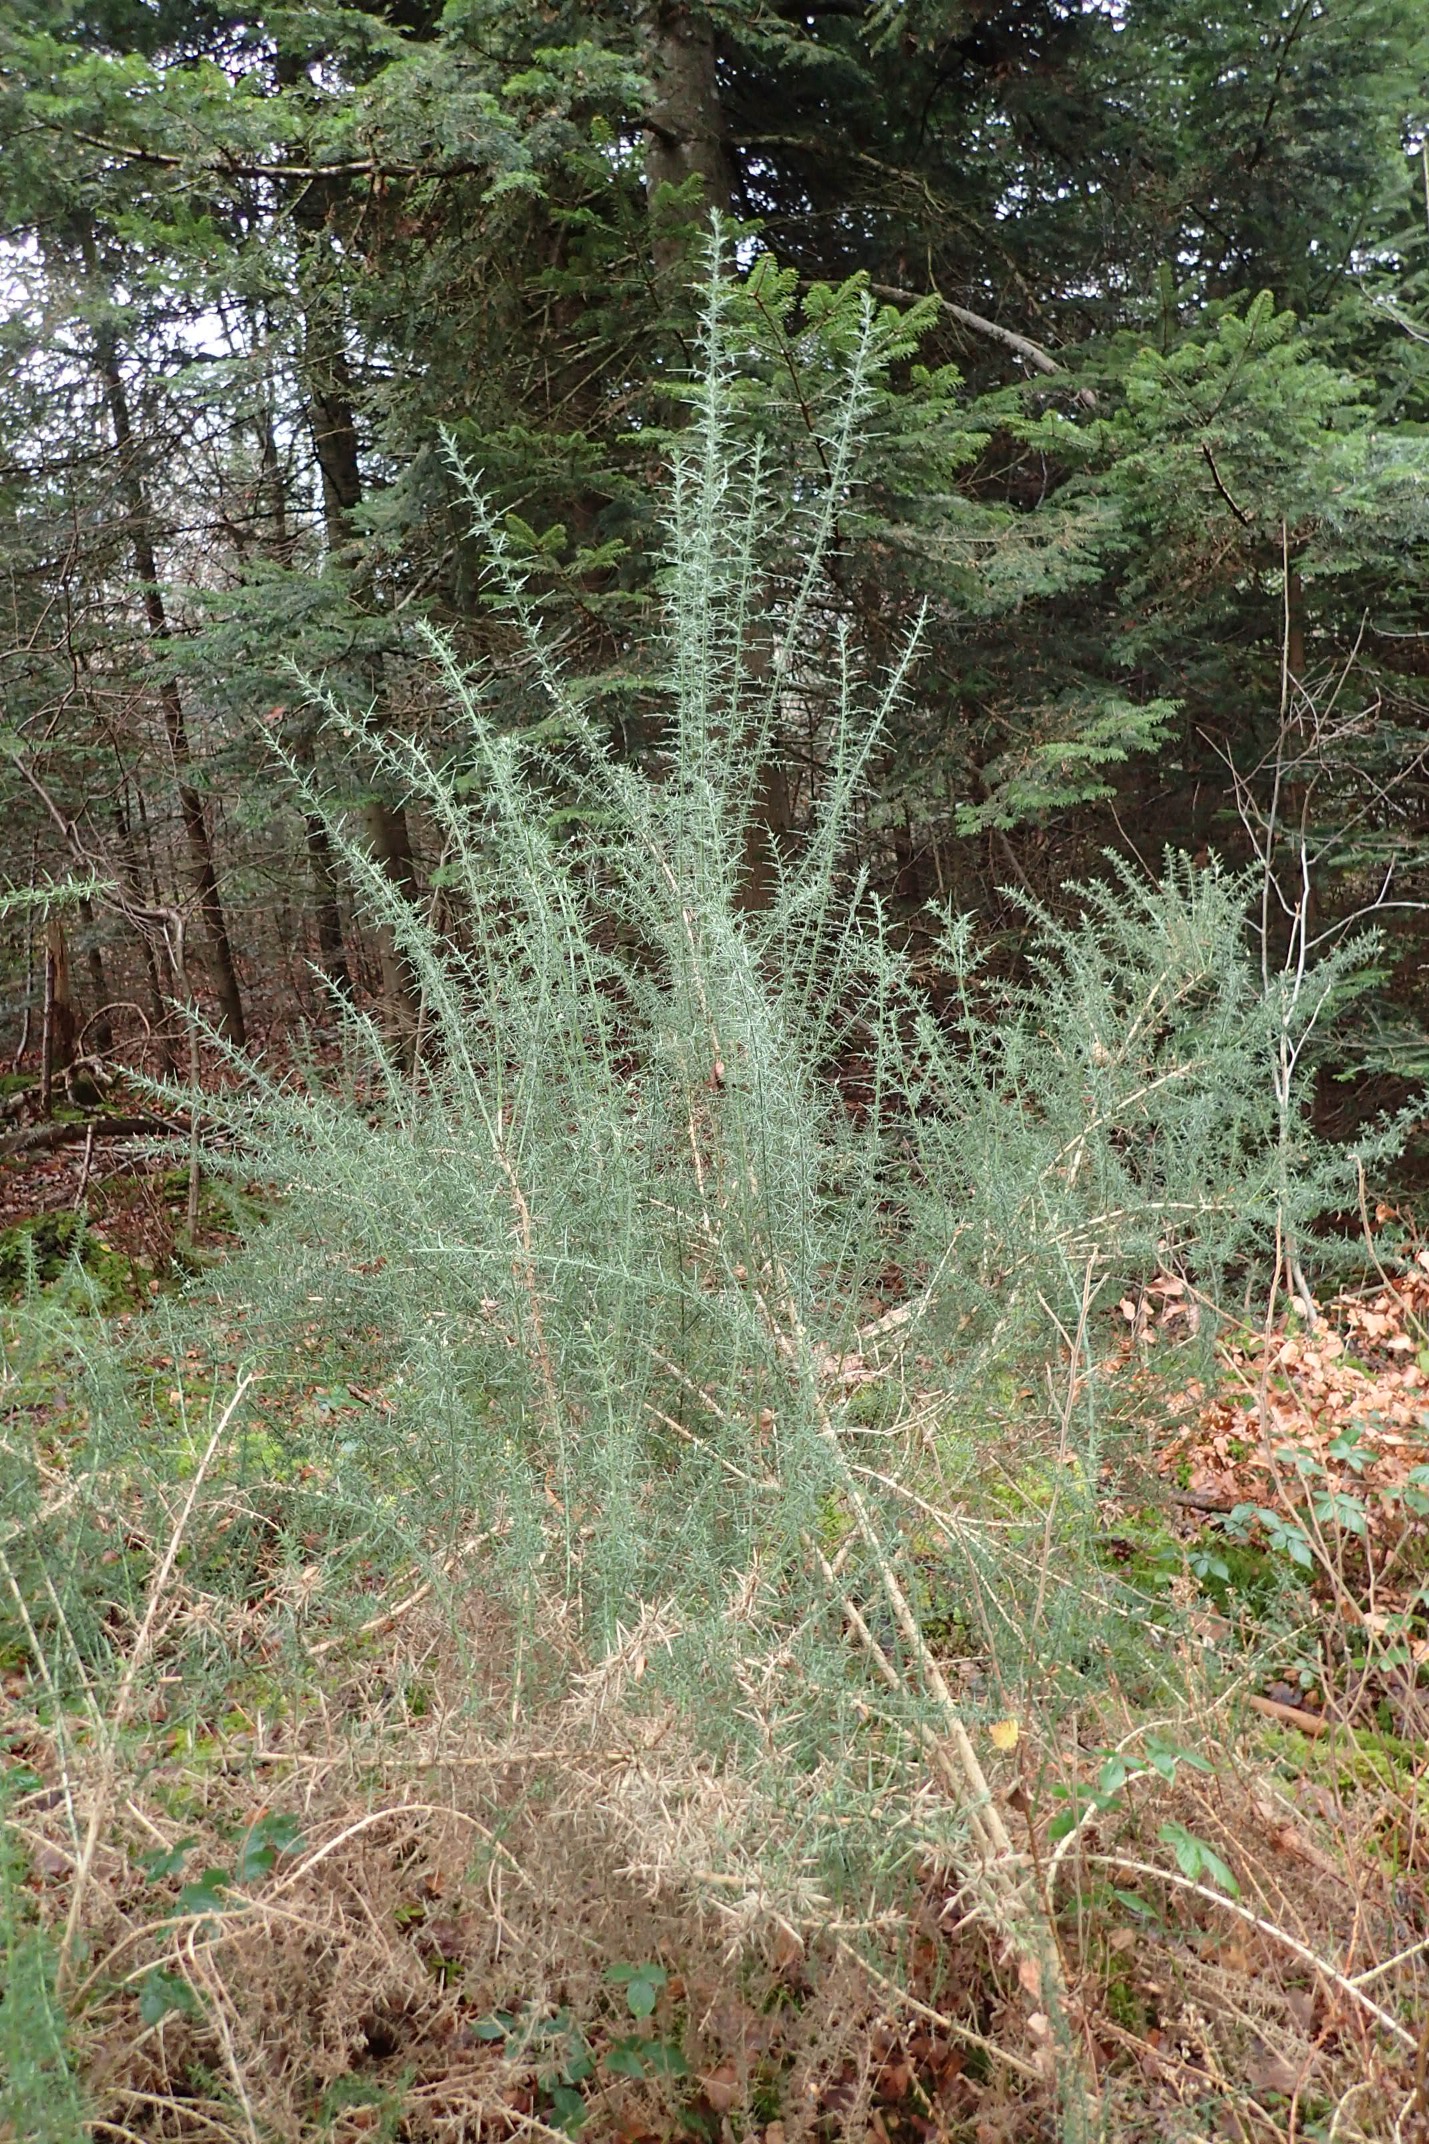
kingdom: Plantae
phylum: Tracheophyta
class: Magnoliopsida
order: Fabales
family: Fabaceae
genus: Ulex
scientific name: Ulex europaeus
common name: Tornblad
